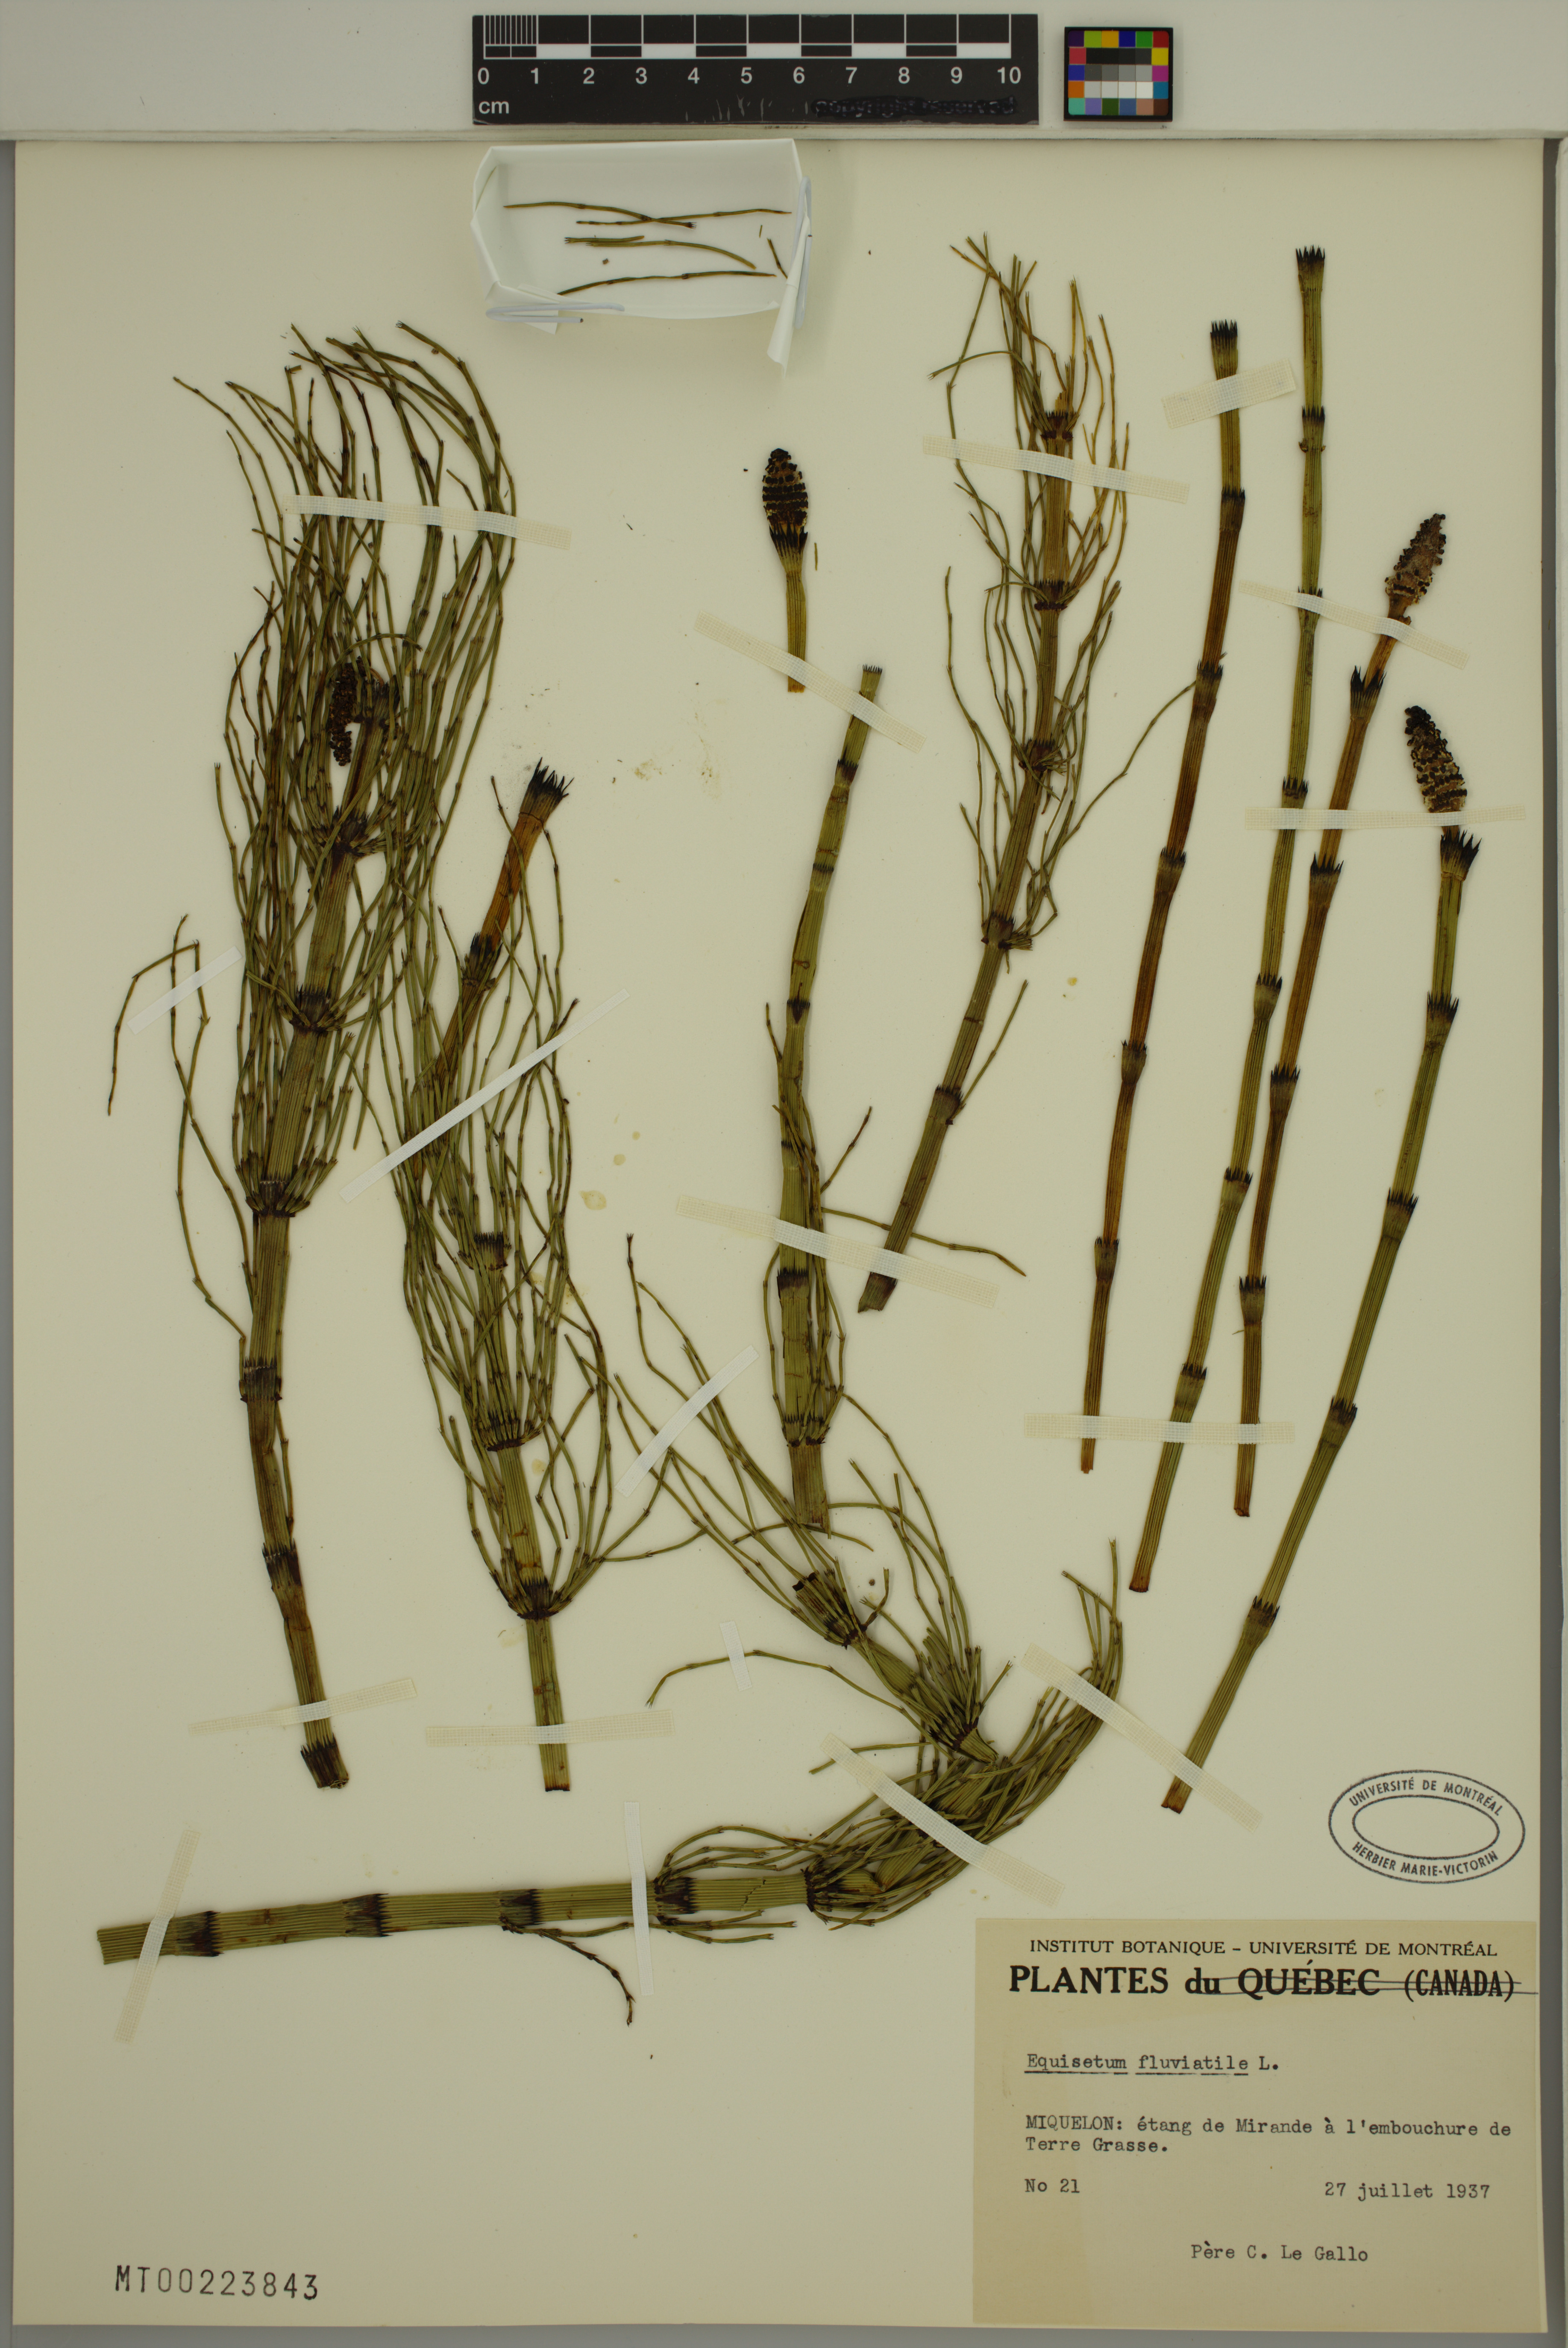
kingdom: Plantae
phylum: Tracheophyta
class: Polypodiopsida
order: Equisetales
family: Equisetaceae
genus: Equisetum
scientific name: Equisetum fluviatile
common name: Water horsetail
